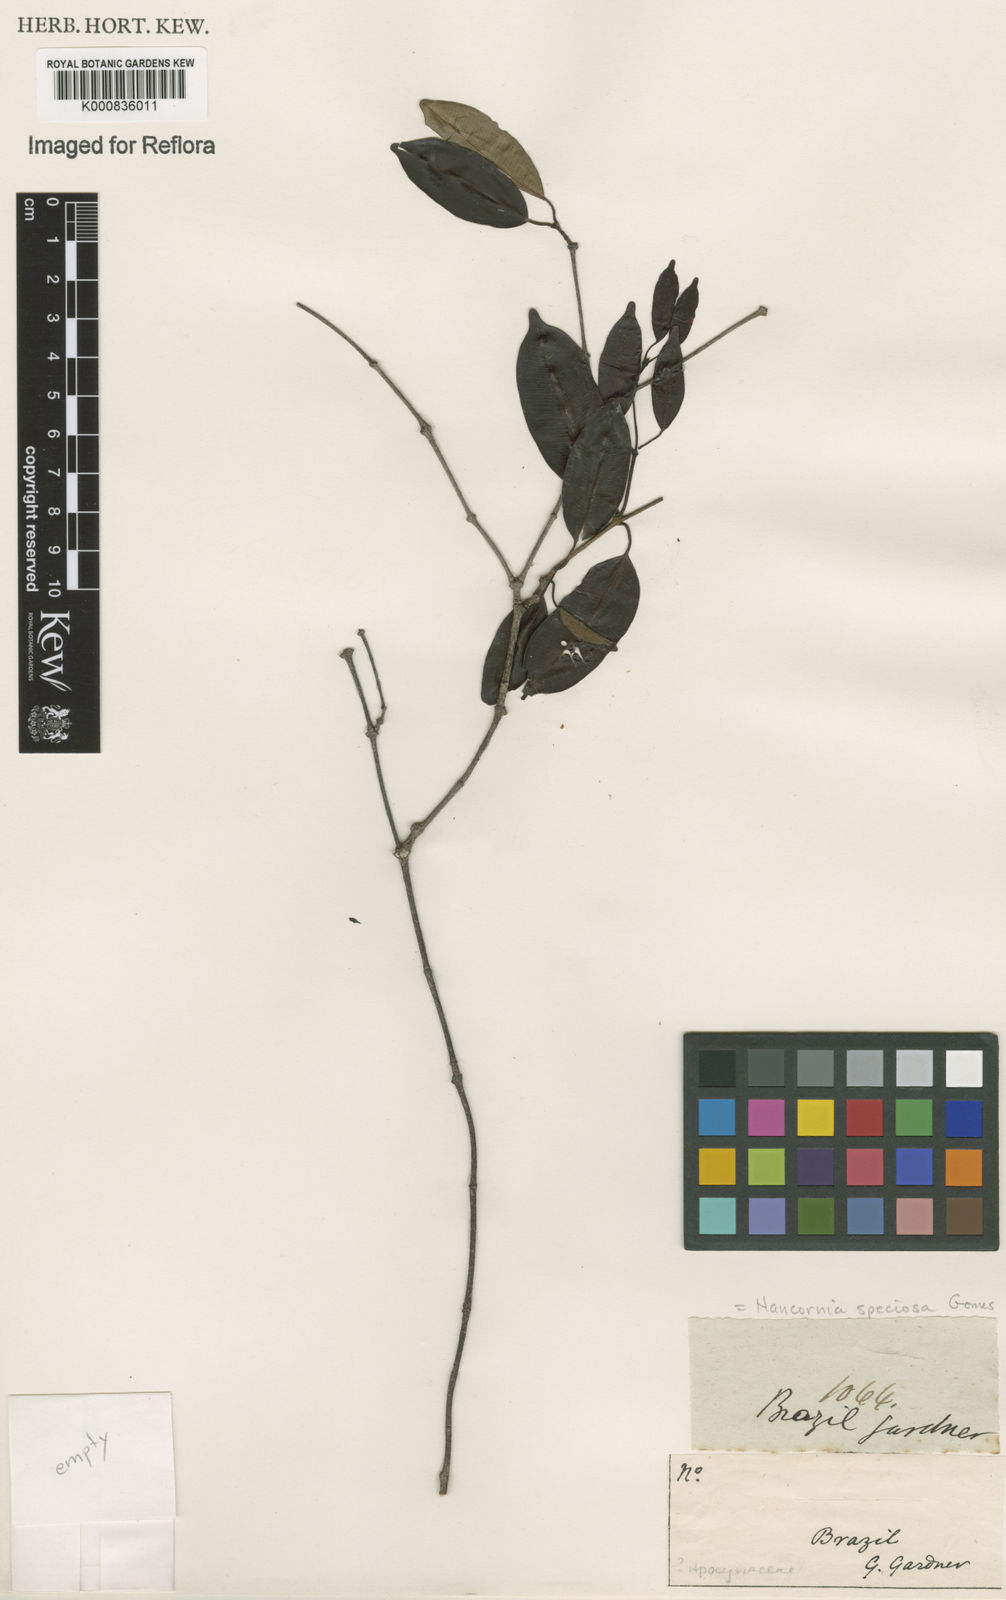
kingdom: Plantae
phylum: Tracheophyta
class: Magnoliopsida
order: Gentianales
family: Apocynaceae
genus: Hancornia
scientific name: Hancornia speciosa
